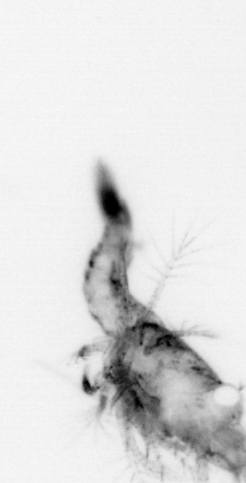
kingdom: Animalia
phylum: Arthropoda
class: Copepoda
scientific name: Copepoda
